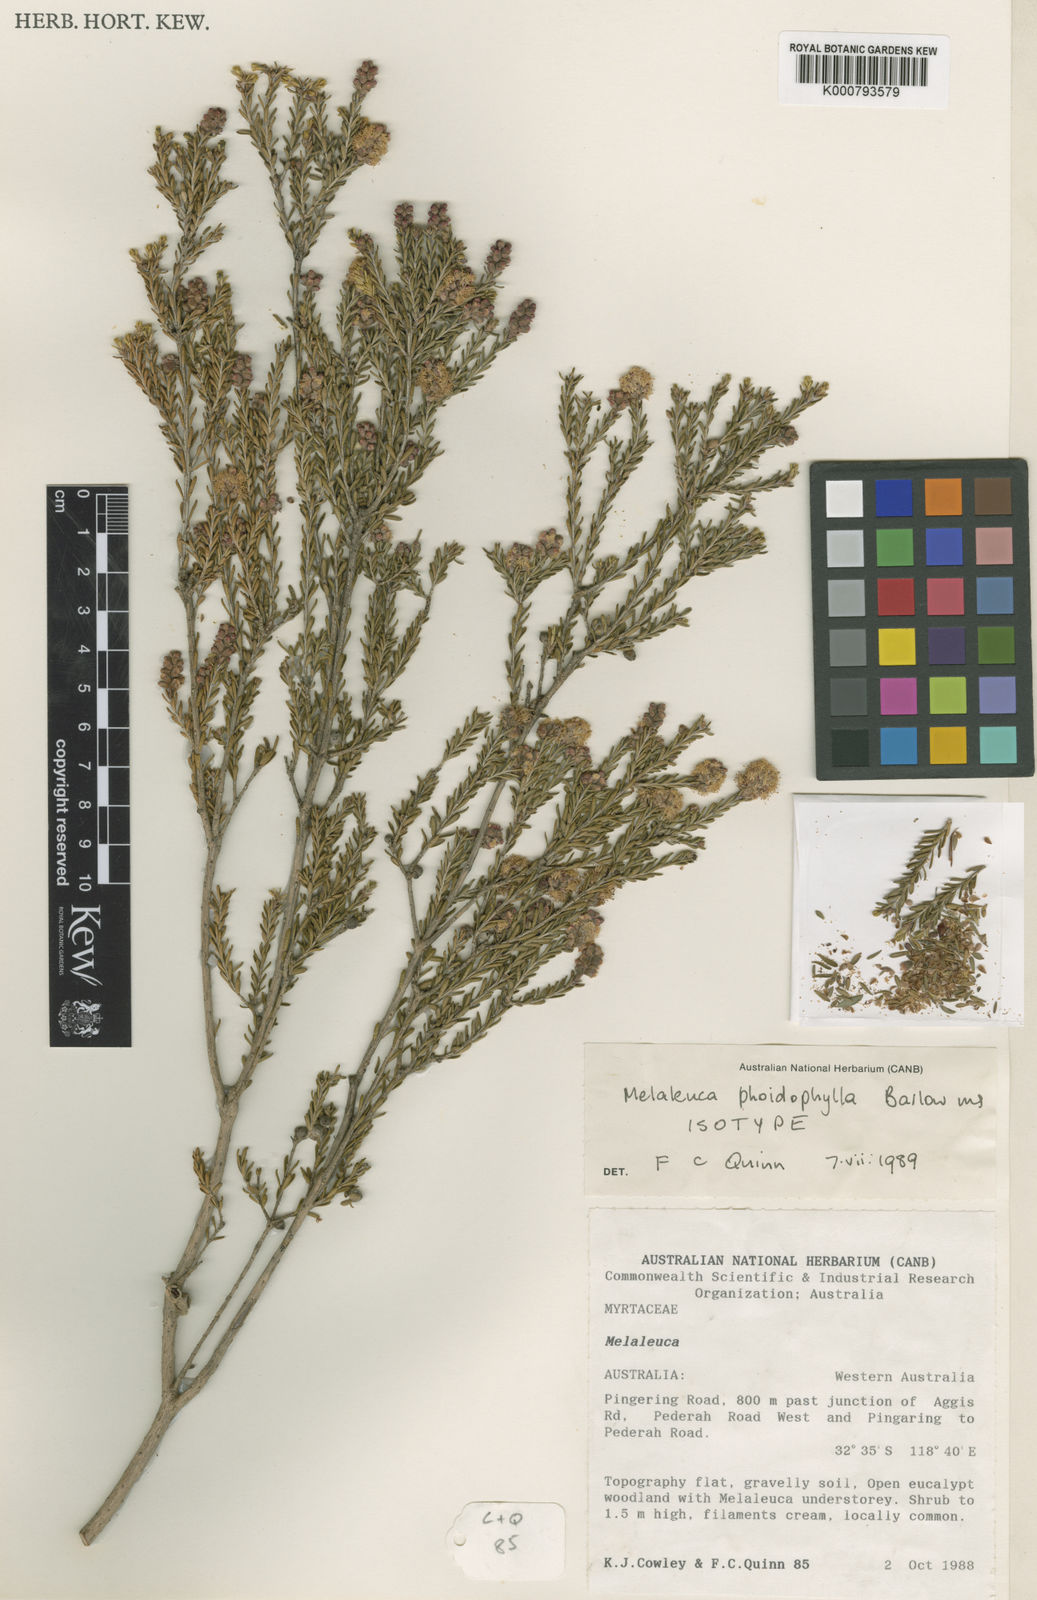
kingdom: Plantae
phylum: Tracheophyta
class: Magnoliopsida
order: Myrtales
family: Myrtaceae
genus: Melaleuca
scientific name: Melaleuca phoidophylla
